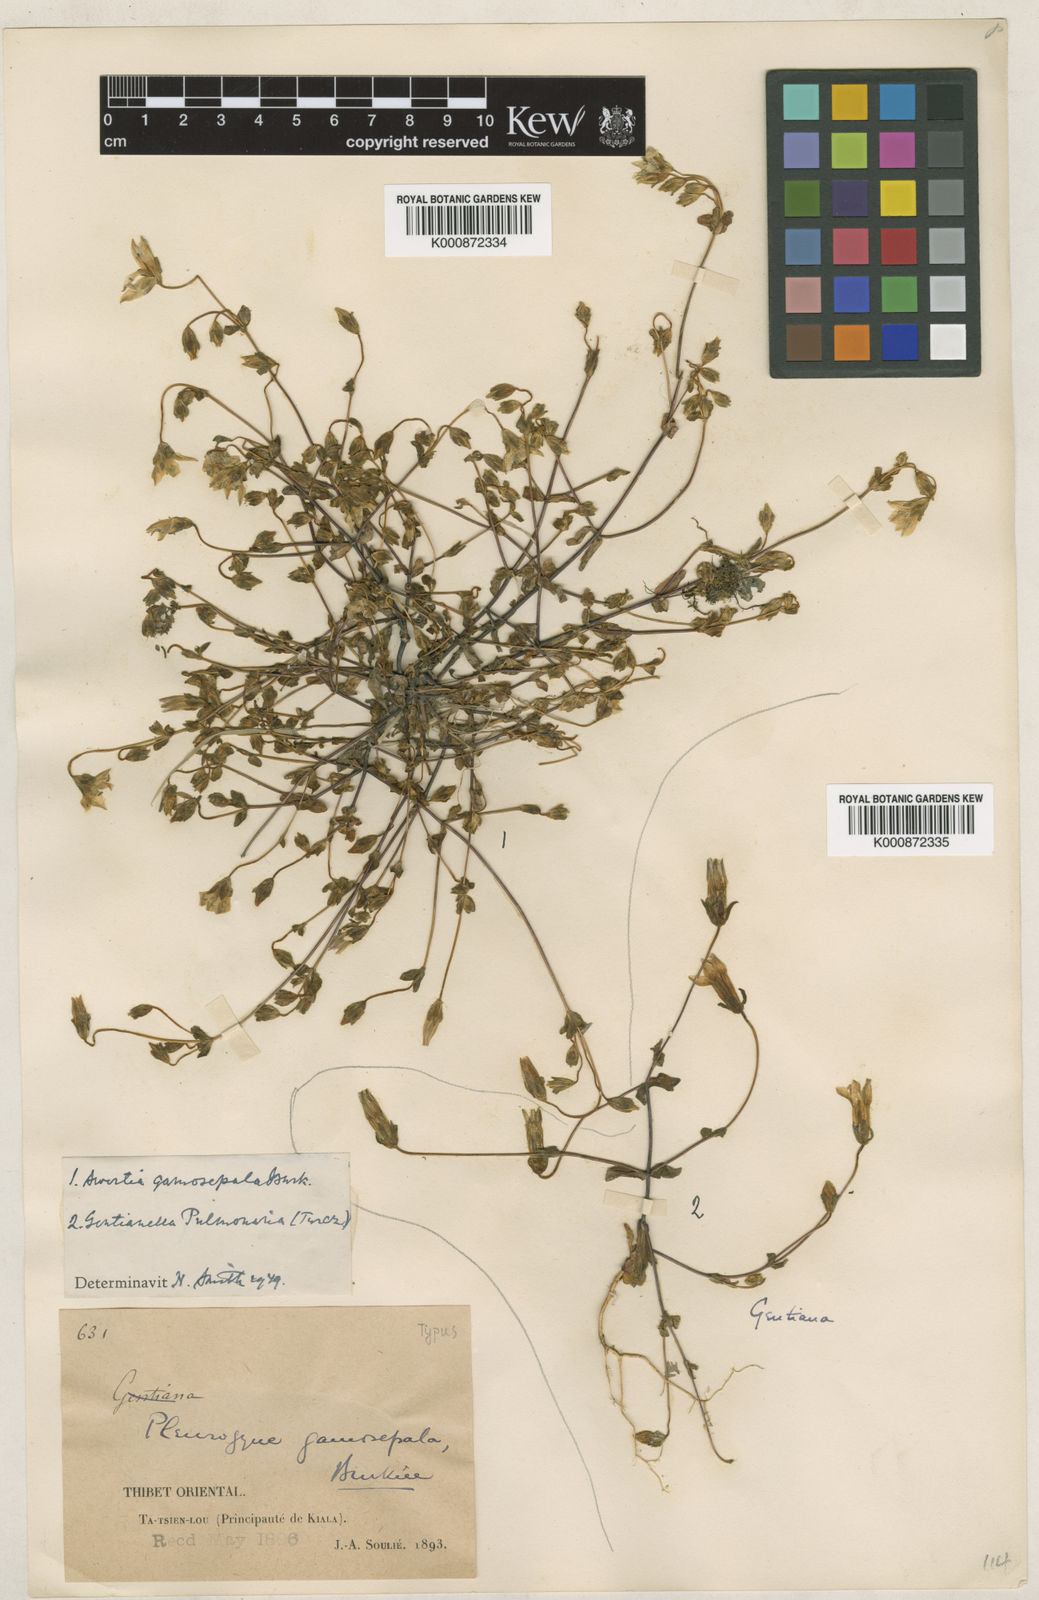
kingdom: Plantae
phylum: Tracheophyta
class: Magnoliopsida
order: Gentianales
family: Gentianaceae
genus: Lomatogonium
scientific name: Lomatogonium gamosepalum
